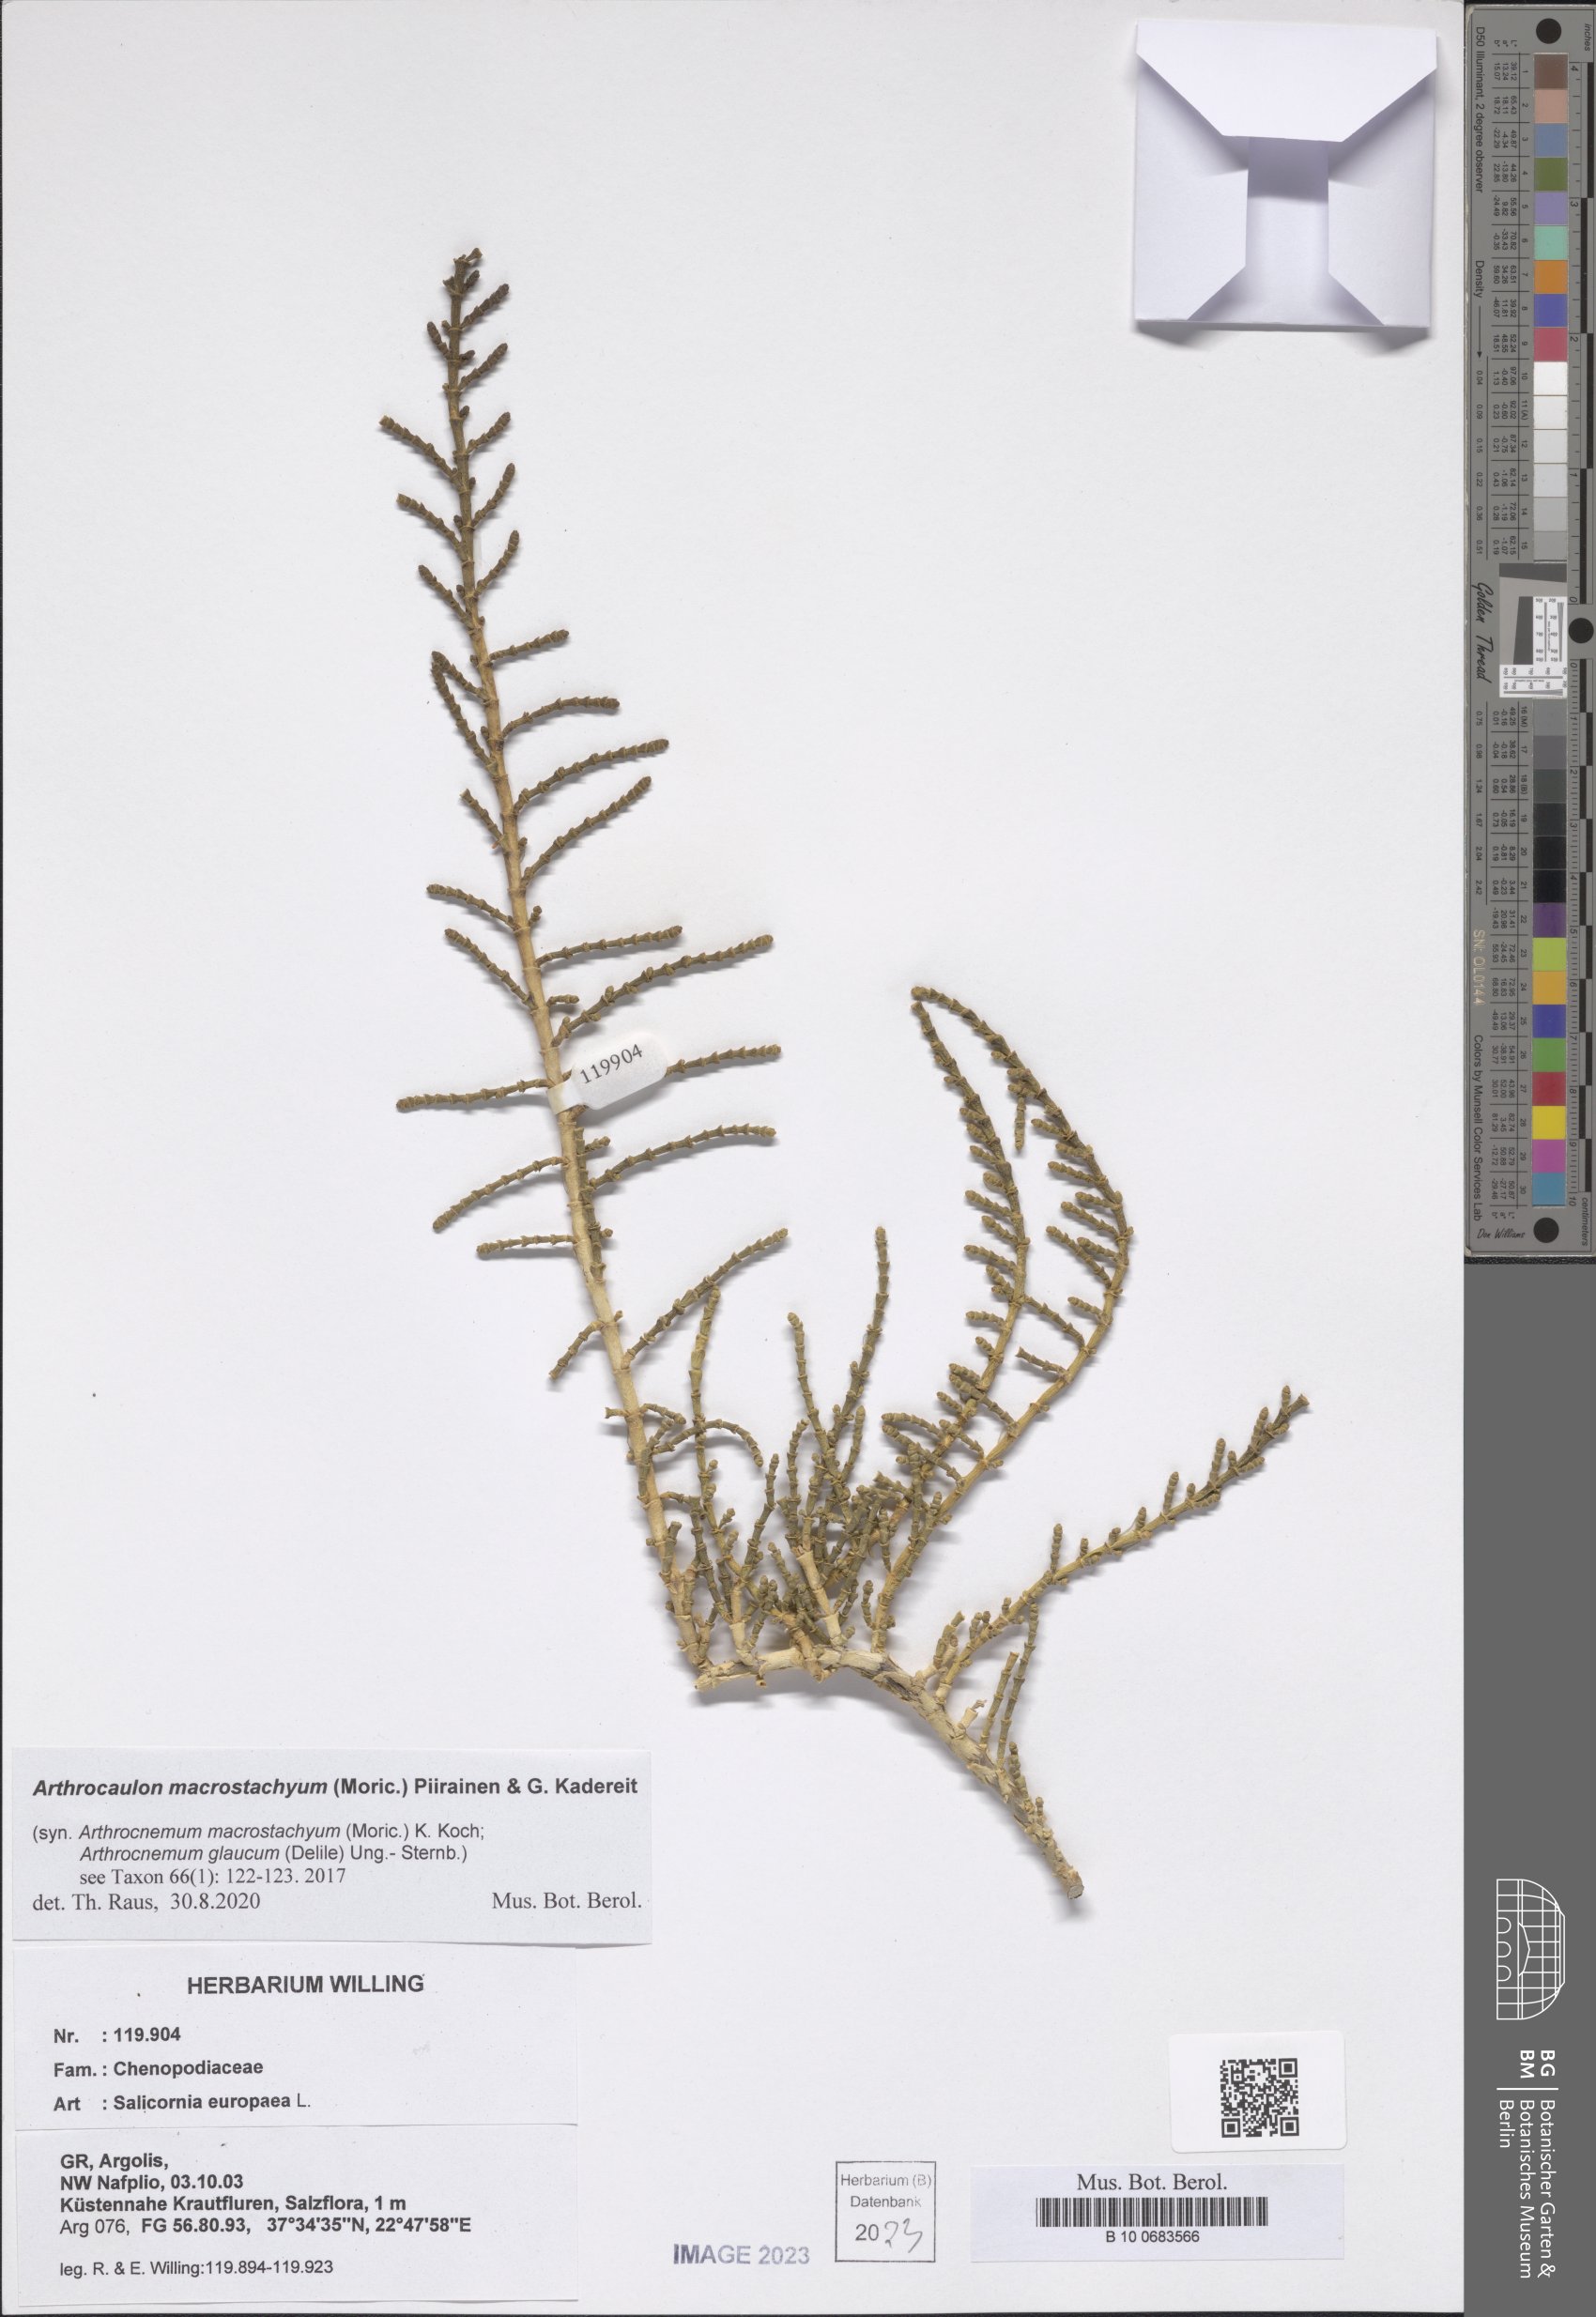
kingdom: Plantae
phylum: Tracheophyta
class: Magnoliopsida
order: Caryophyllales
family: Amaranthaceae
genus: Arthrocaulon
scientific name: Arthrocaulon macrostachyum
